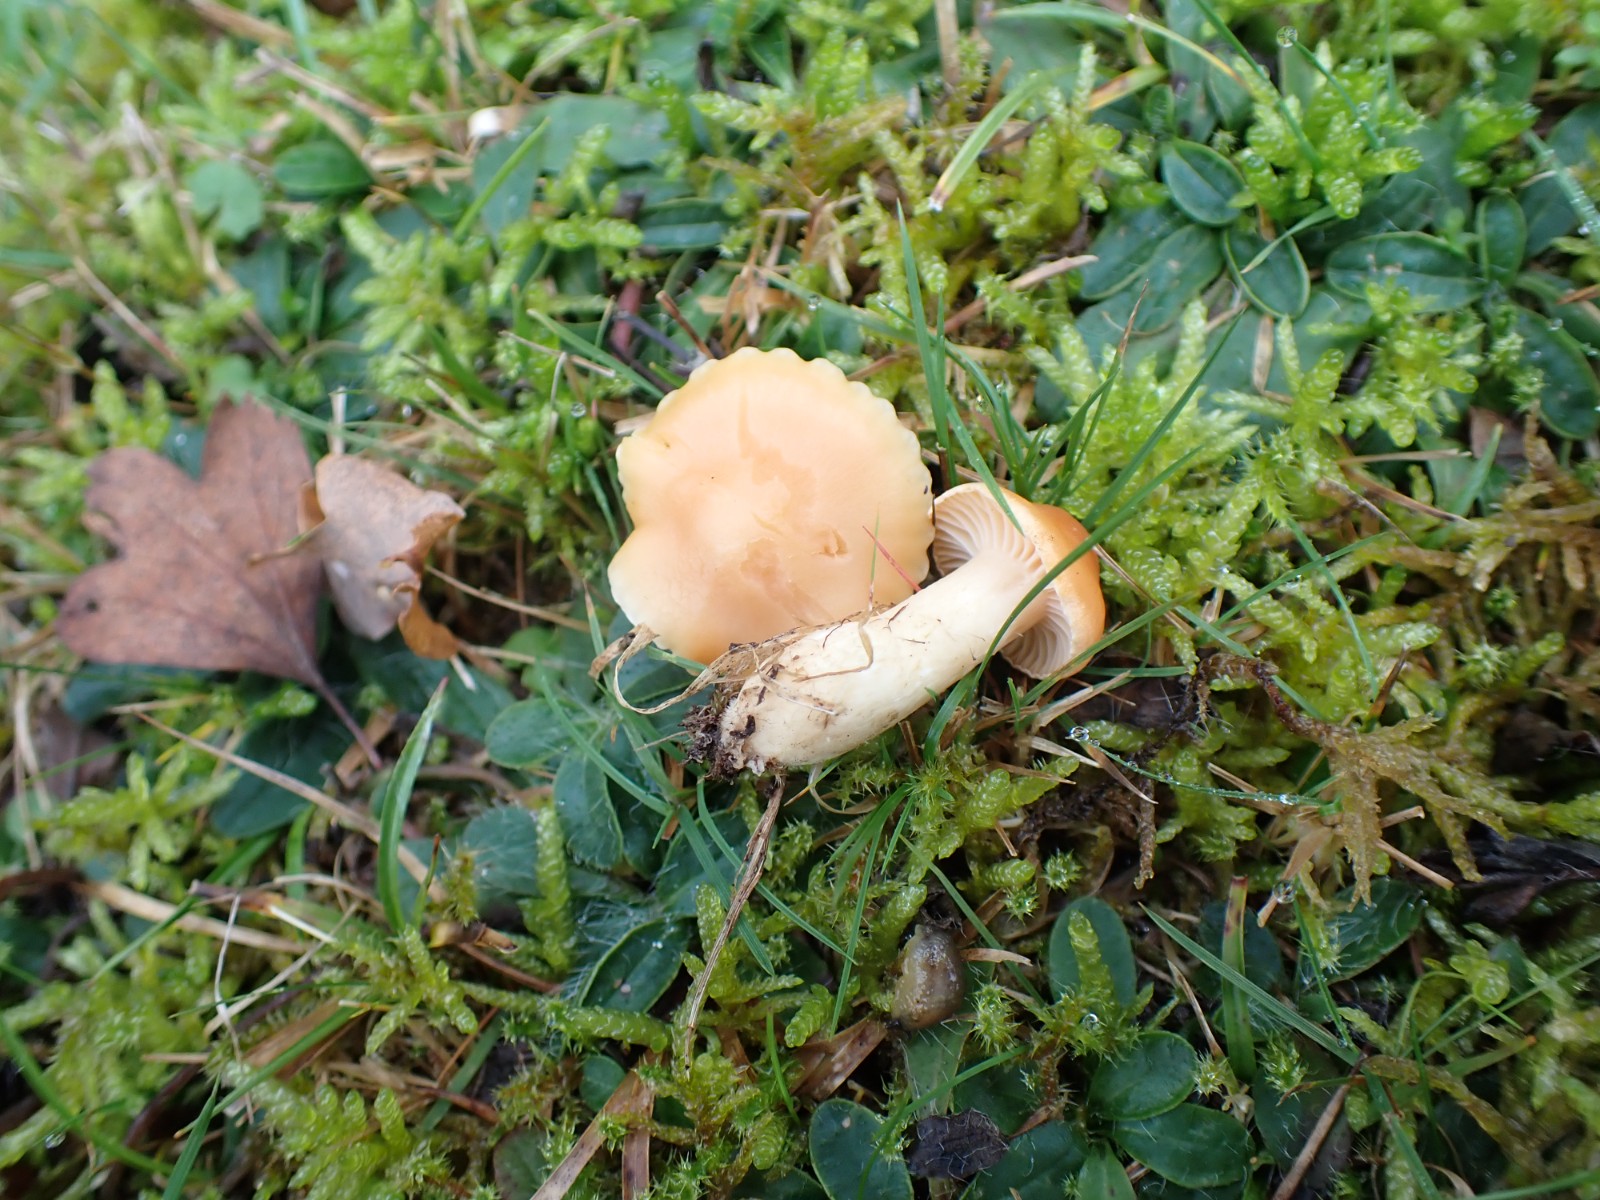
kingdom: Fungi
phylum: Basidiomycota
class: Agaricomycetes
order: Agaricales
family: Hygrophoraceae
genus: Cuphophyllus
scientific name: Cuphophyllus pratensis
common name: eng-vokshat
